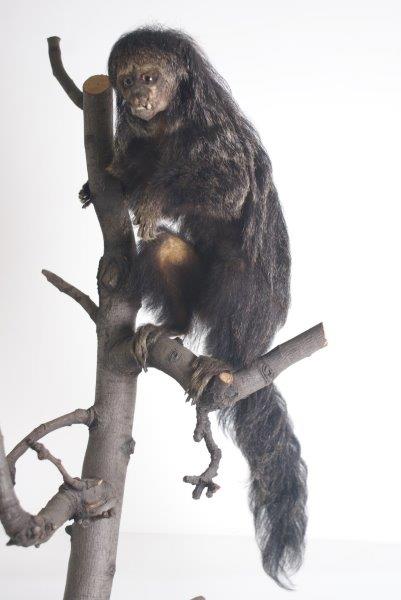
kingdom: Animalia
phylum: Chordata
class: Mammalia
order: Primates
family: Pitheciidae
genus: Pithecia
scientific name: Pithecia monachus
